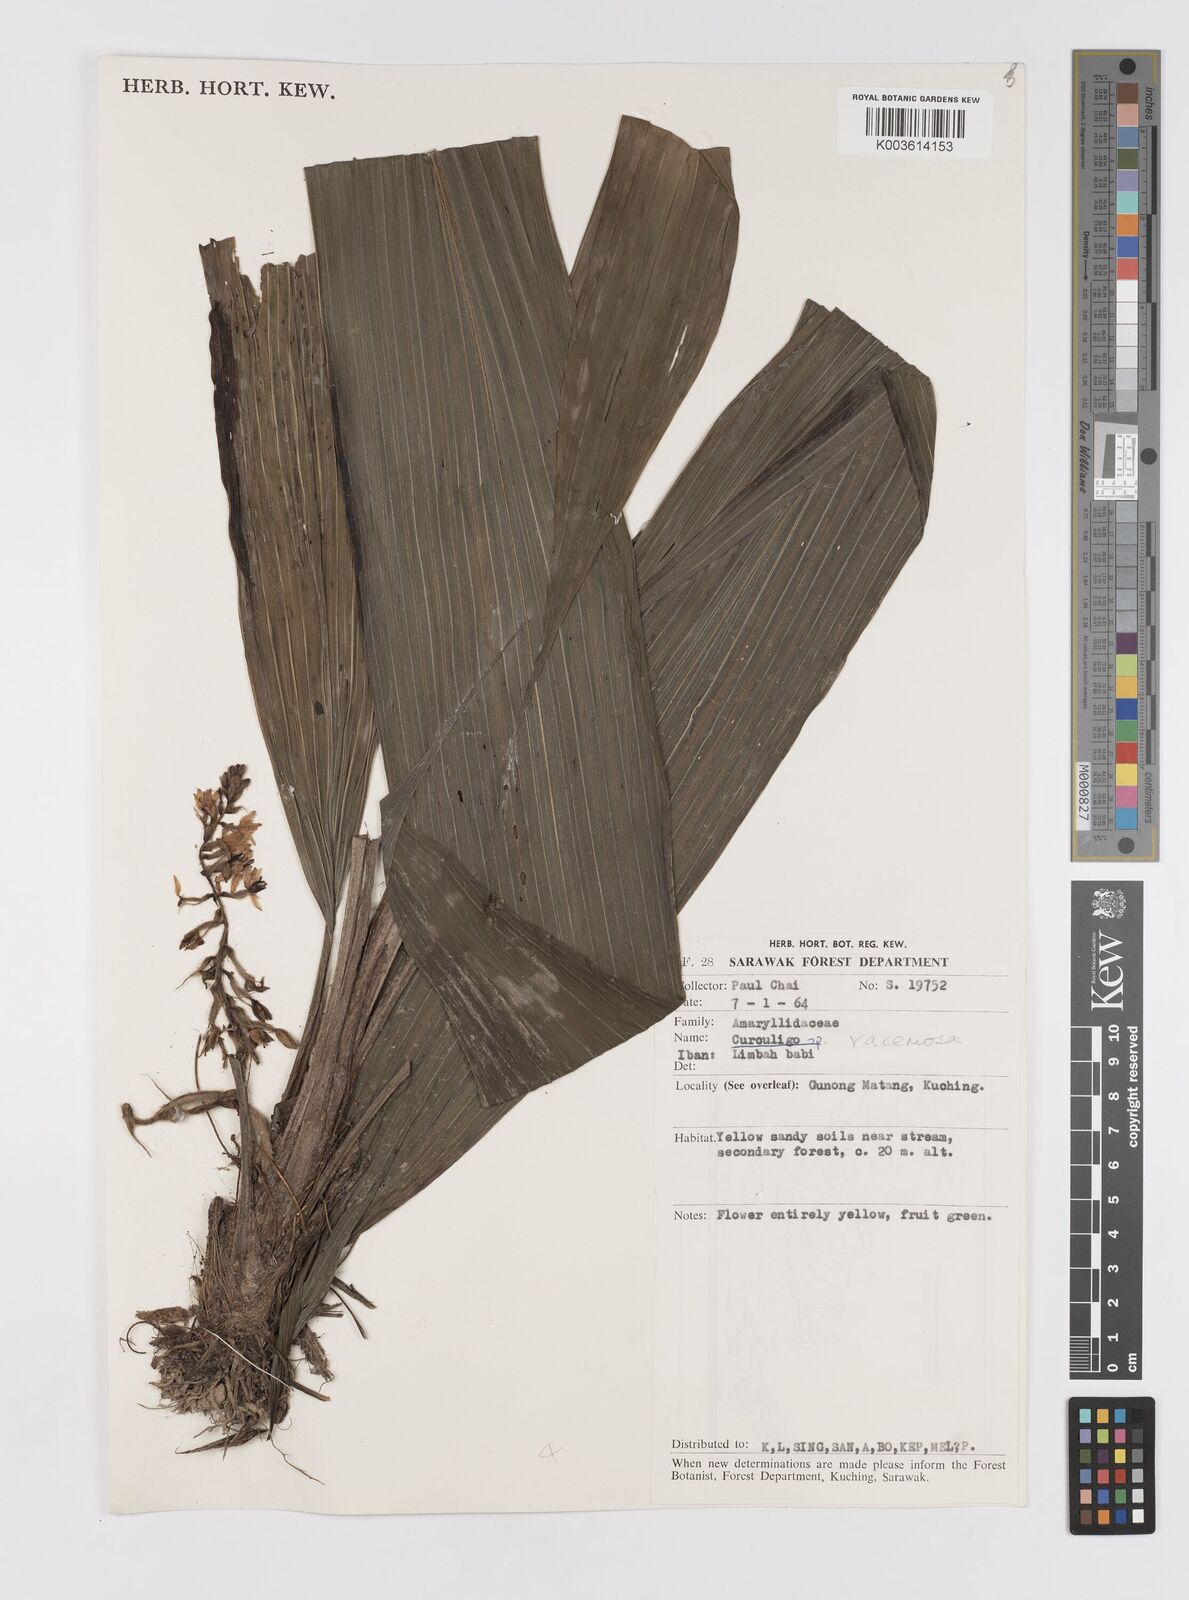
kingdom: Plantae
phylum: Tracheophyta
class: Liliopsida
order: Asparagales
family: Hypoxidaceae
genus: Curculigo
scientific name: Curculigo racemosa
